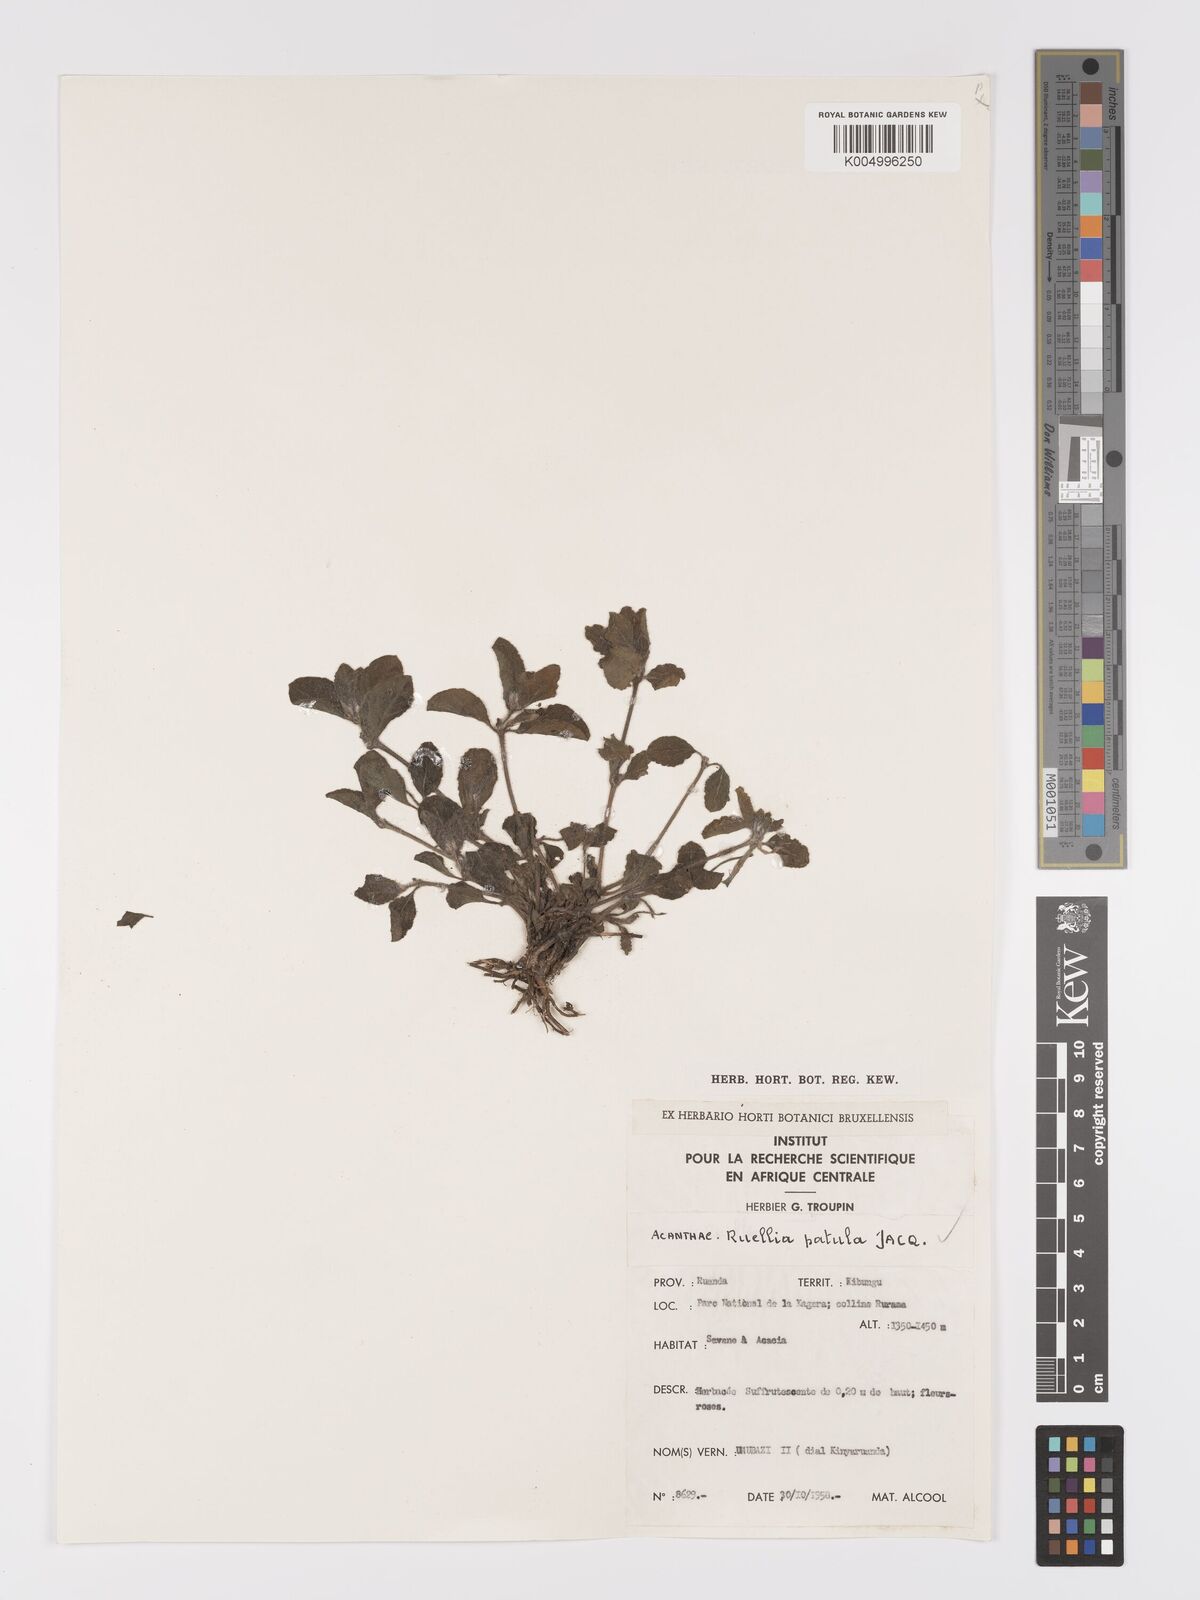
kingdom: Plantae
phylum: Tracheophyta
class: Magnoliopsida
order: Lamiales
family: Acanthaceae
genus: Ruellia
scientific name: Ruellia patula
